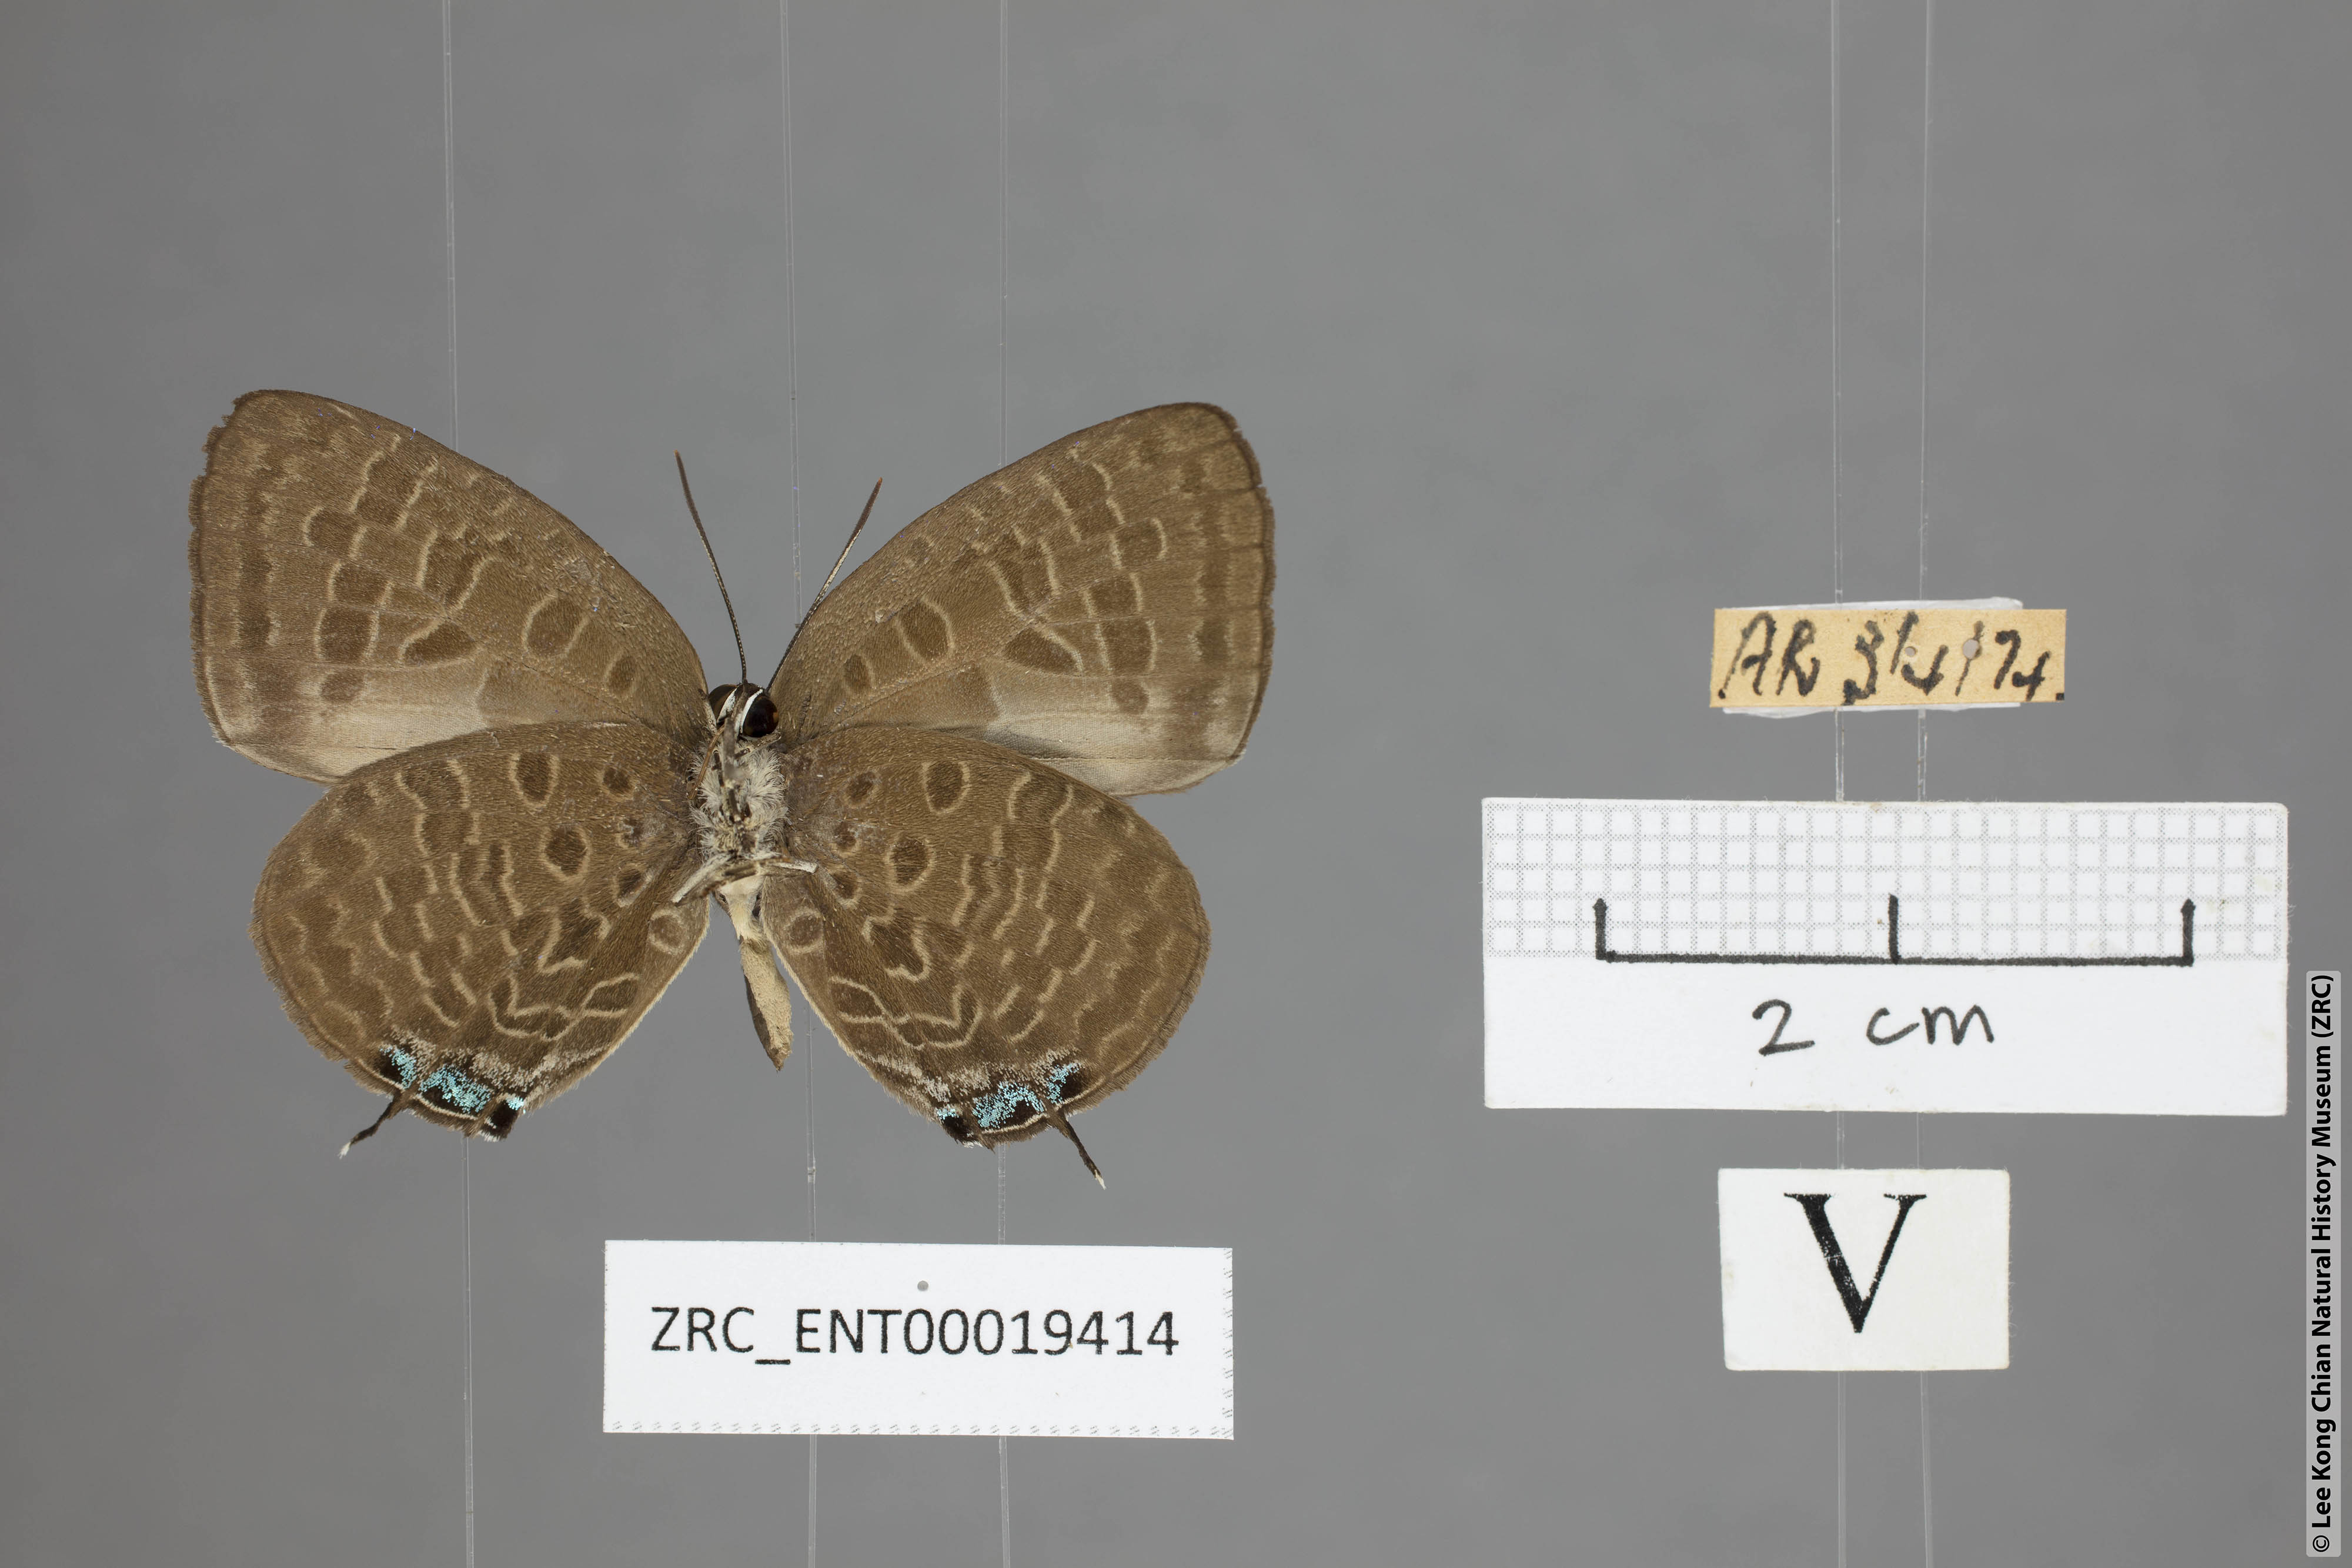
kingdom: Animalia
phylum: Arthropoda
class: Insecta
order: Lepidoptera
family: Lycaenidae
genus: Arhopala
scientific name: Arhopala elopura
